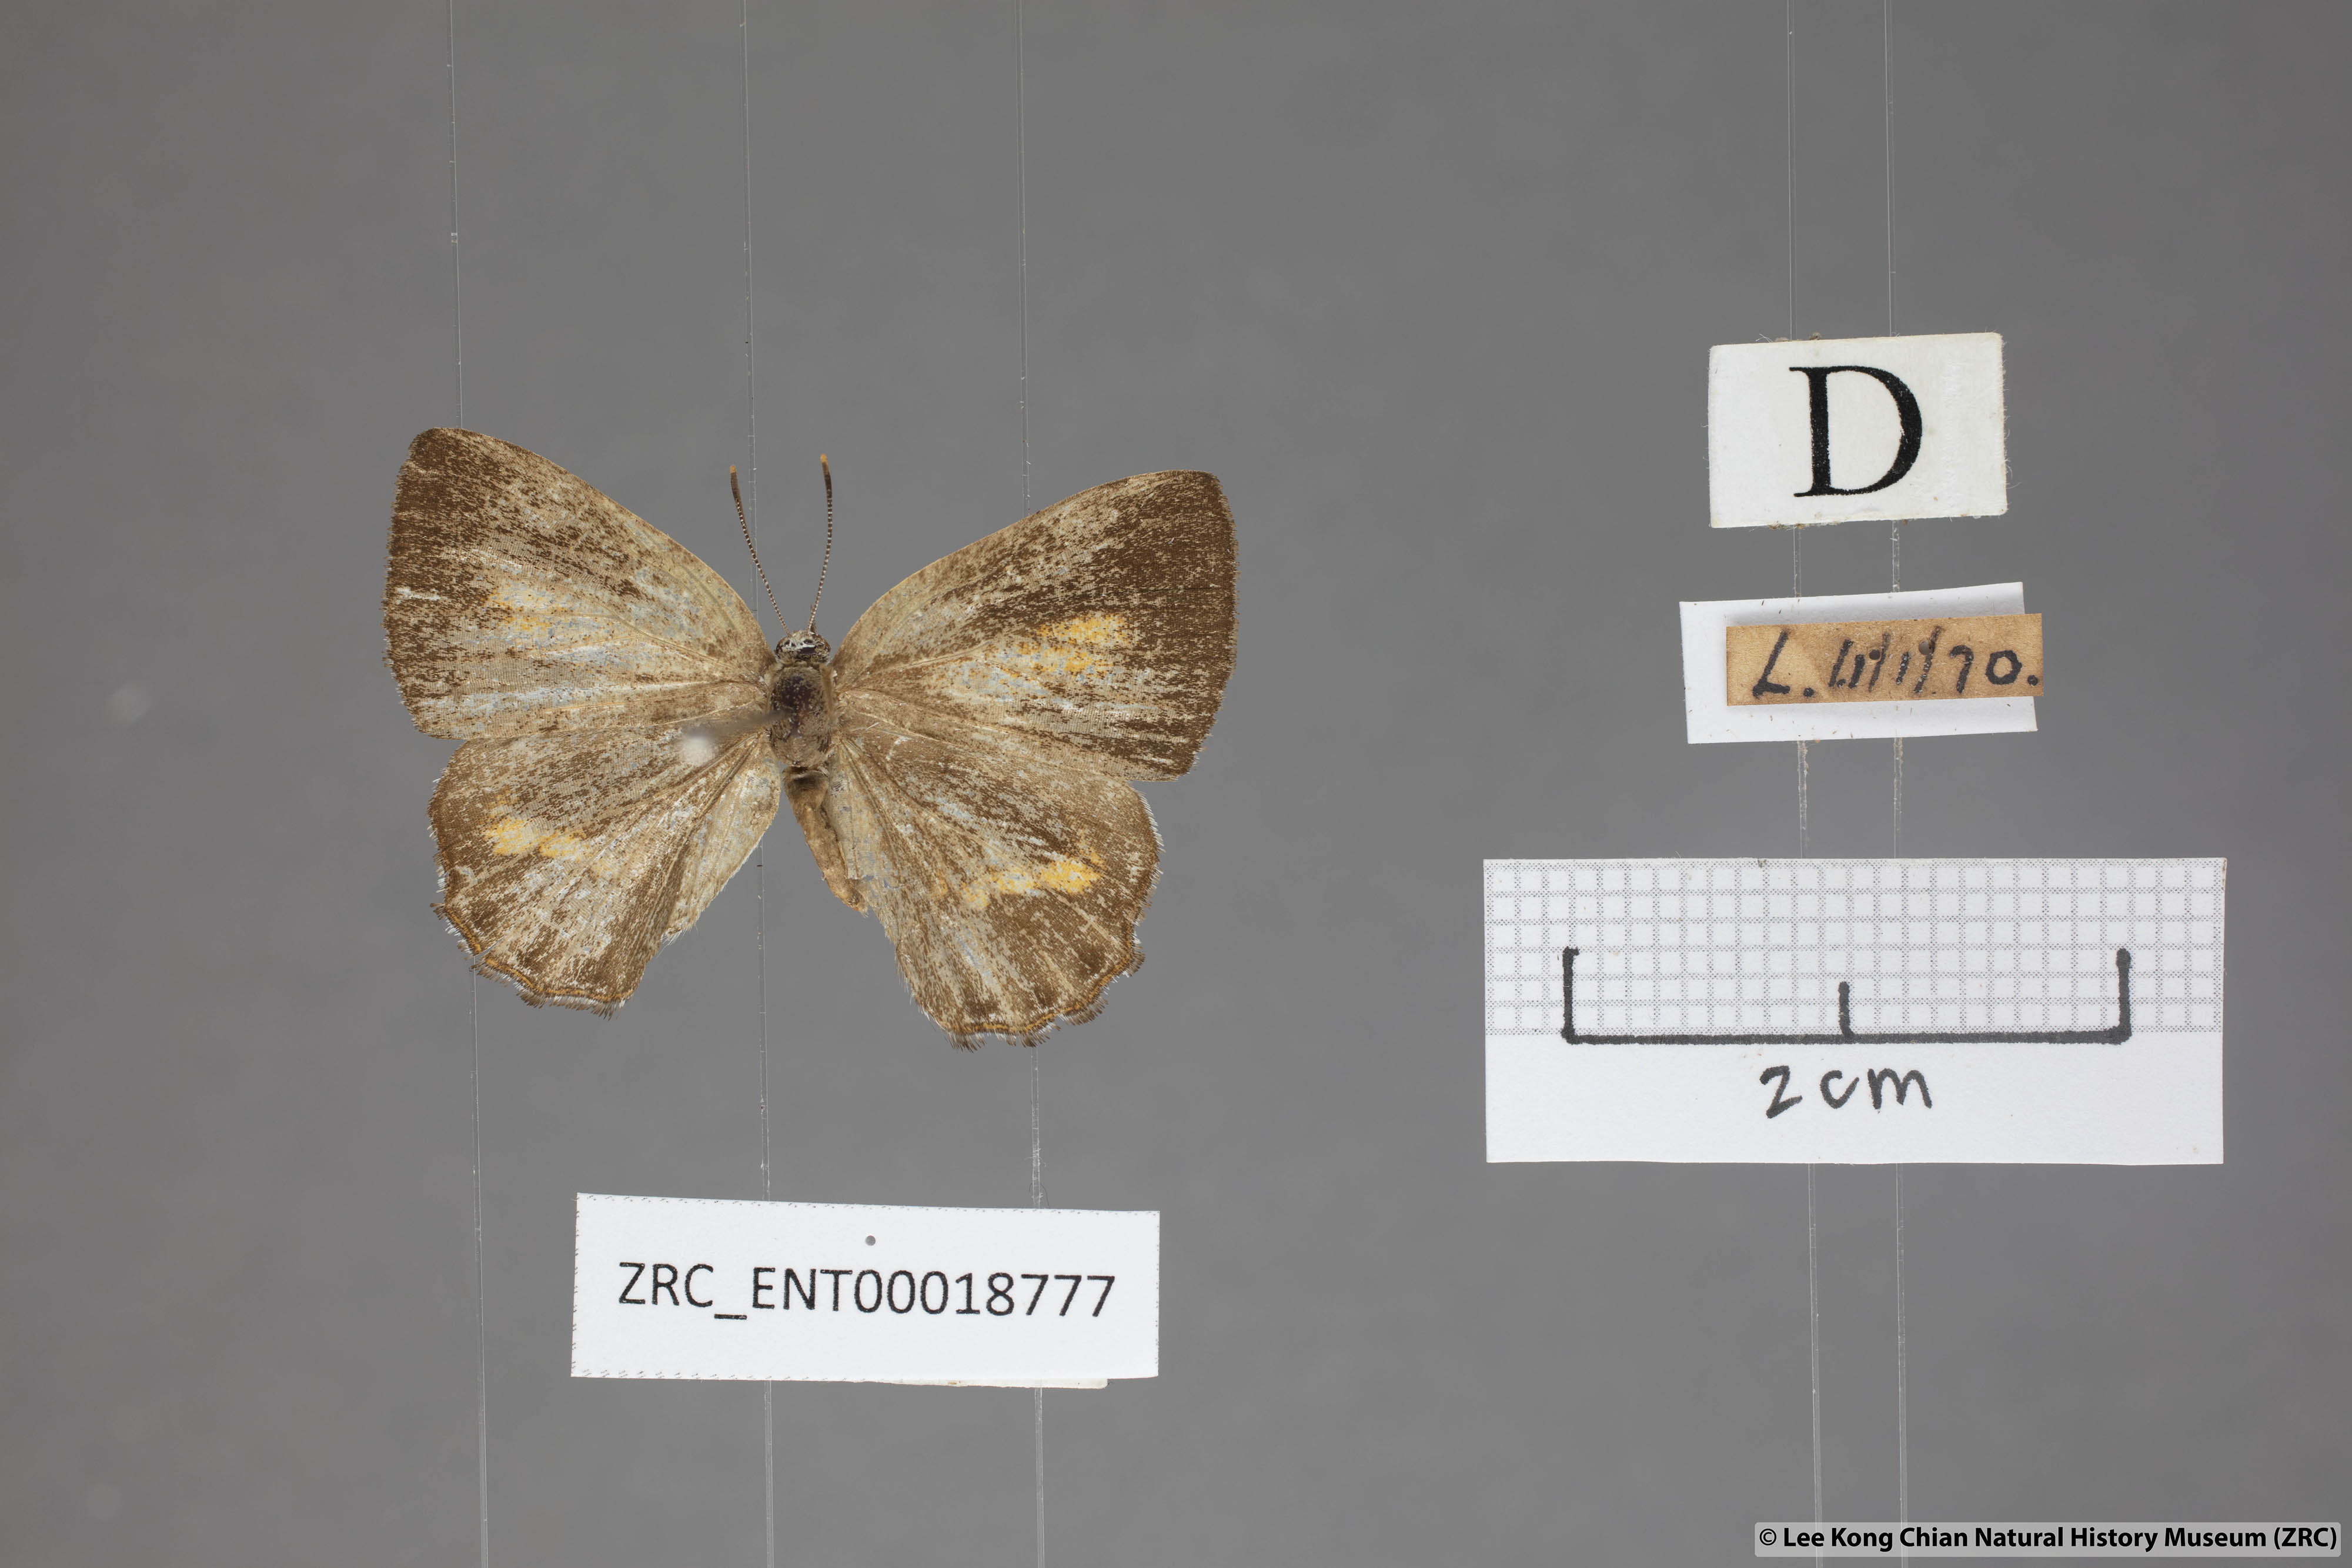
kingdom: Animalia
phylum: Arthropoda
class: Insecta
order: Lepidoptera
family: Lycaenidae
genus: Poritia
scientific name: Poritia erycinoides
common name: Blue gem
